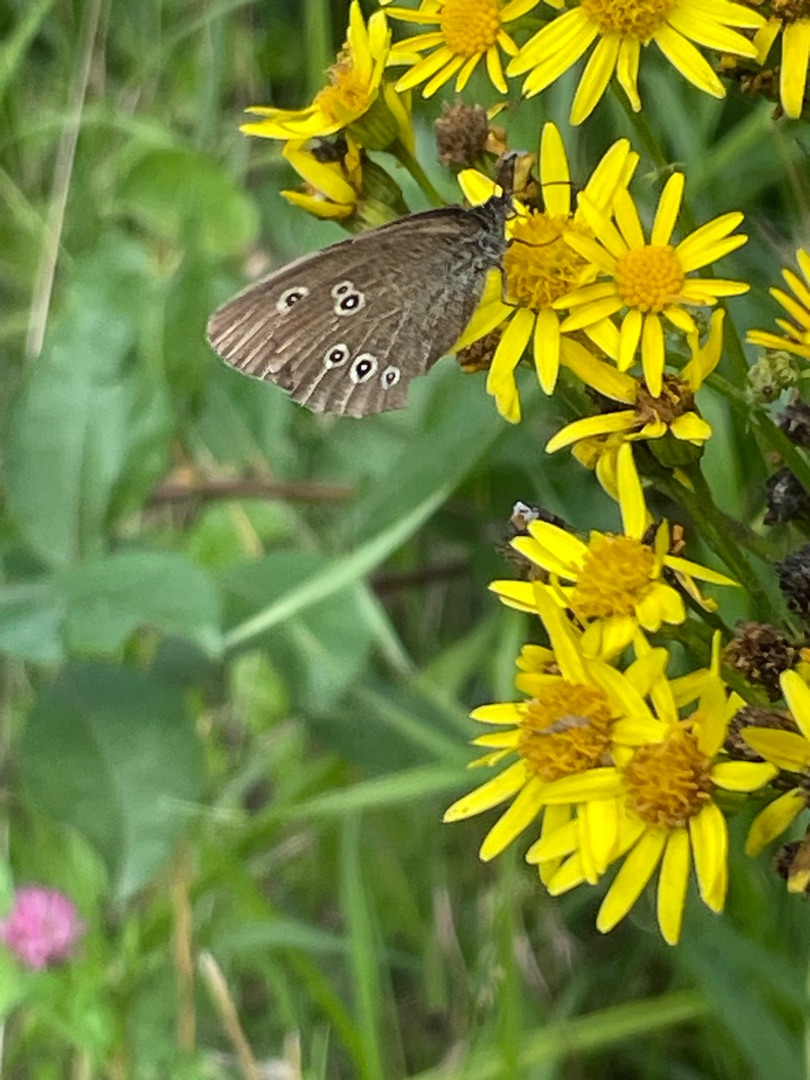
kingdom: Animalia
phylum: Arthropoda
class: Insecta
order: Lepidoptera
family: Nymphalidae
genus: Aphantopus
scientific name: Aphantopus hyperantus
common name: Engrandøje
